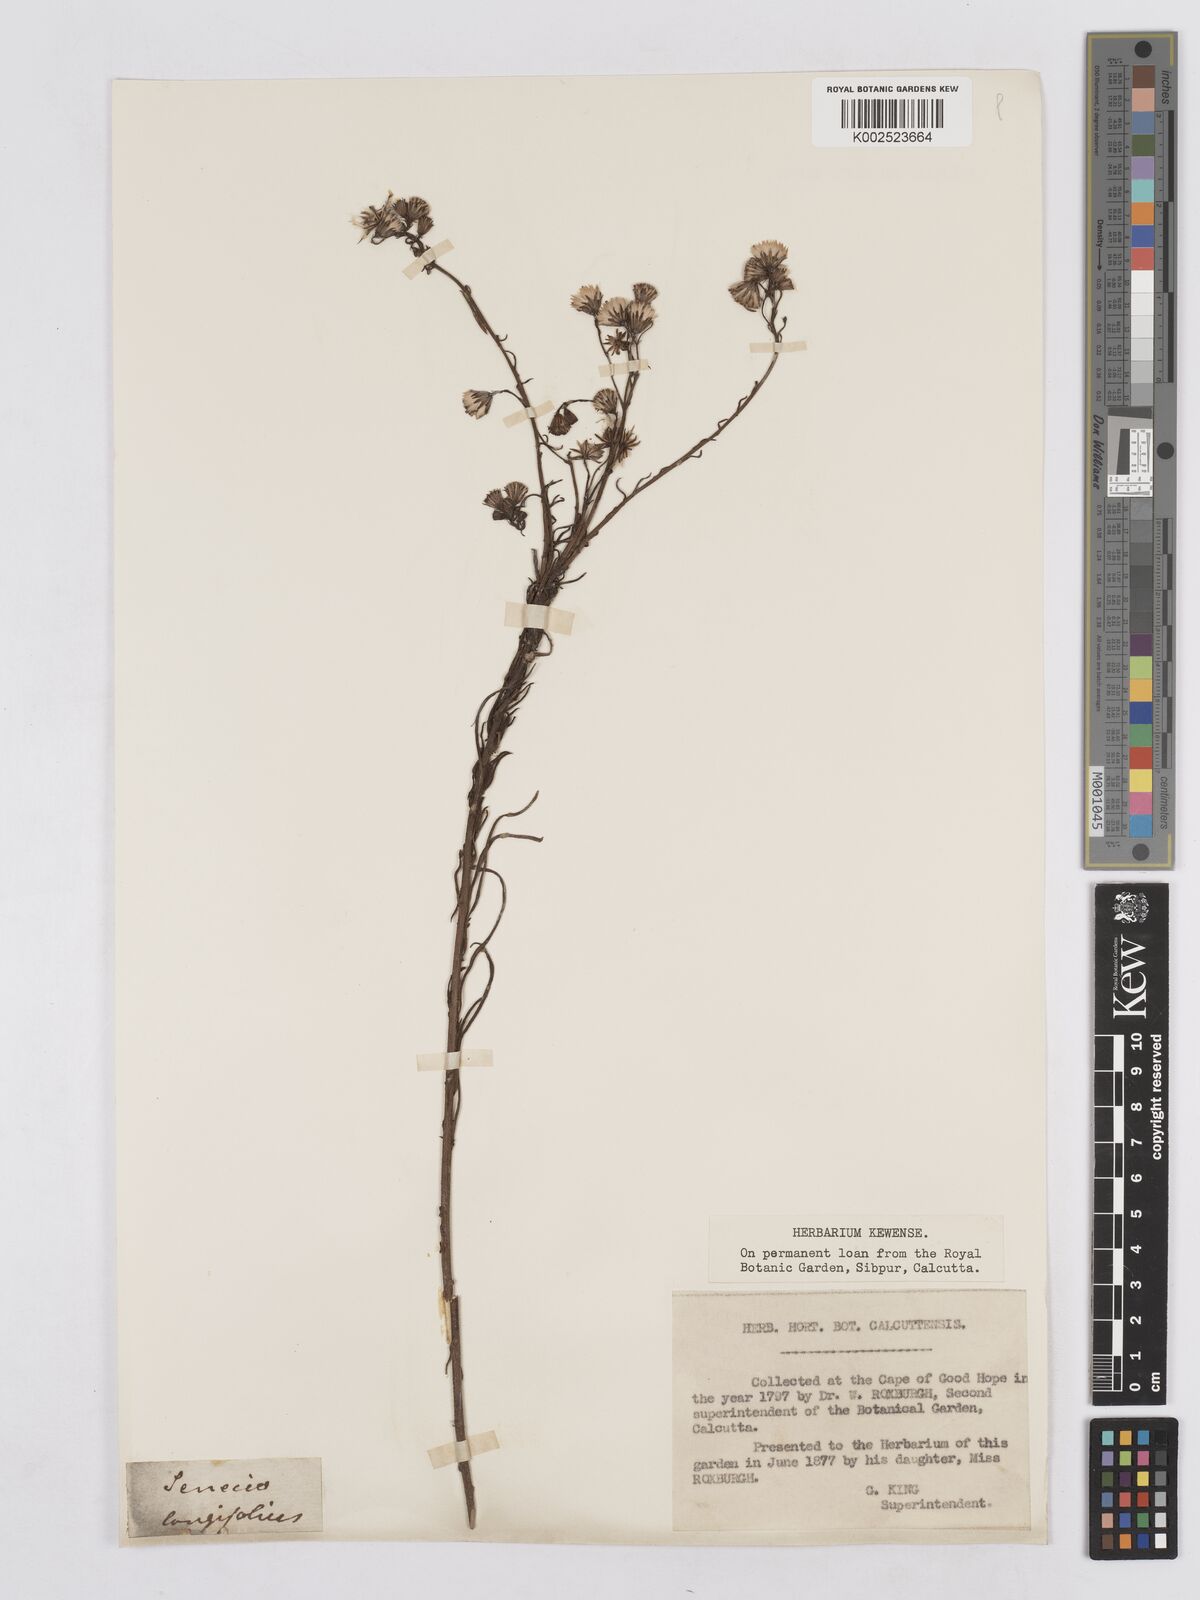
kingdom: Plantae
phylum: Tracheophyta
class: Magnoliopsida
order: Asterales
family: Asteraceae
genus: Senecio
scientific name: Senecio linifolius
